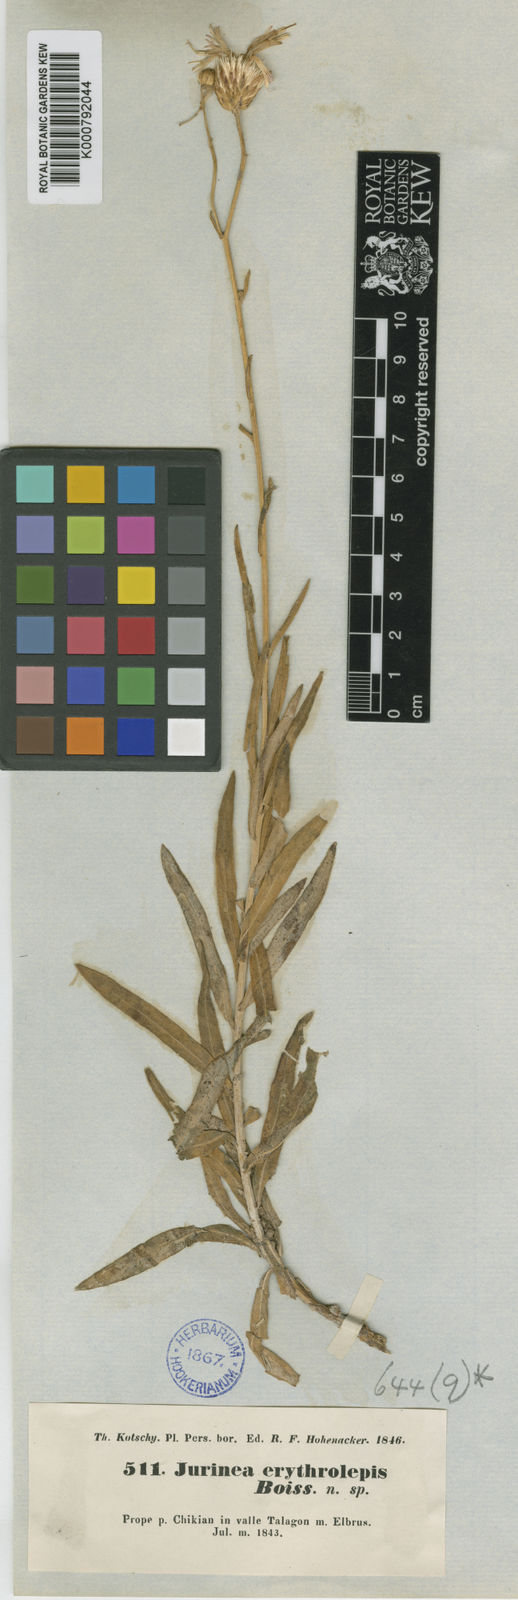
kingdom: Plantae
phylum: Tracheophyta
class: Magnoliopsida
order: Asterales
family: Asteraceae
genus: Jurinea
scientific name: Jurinea
